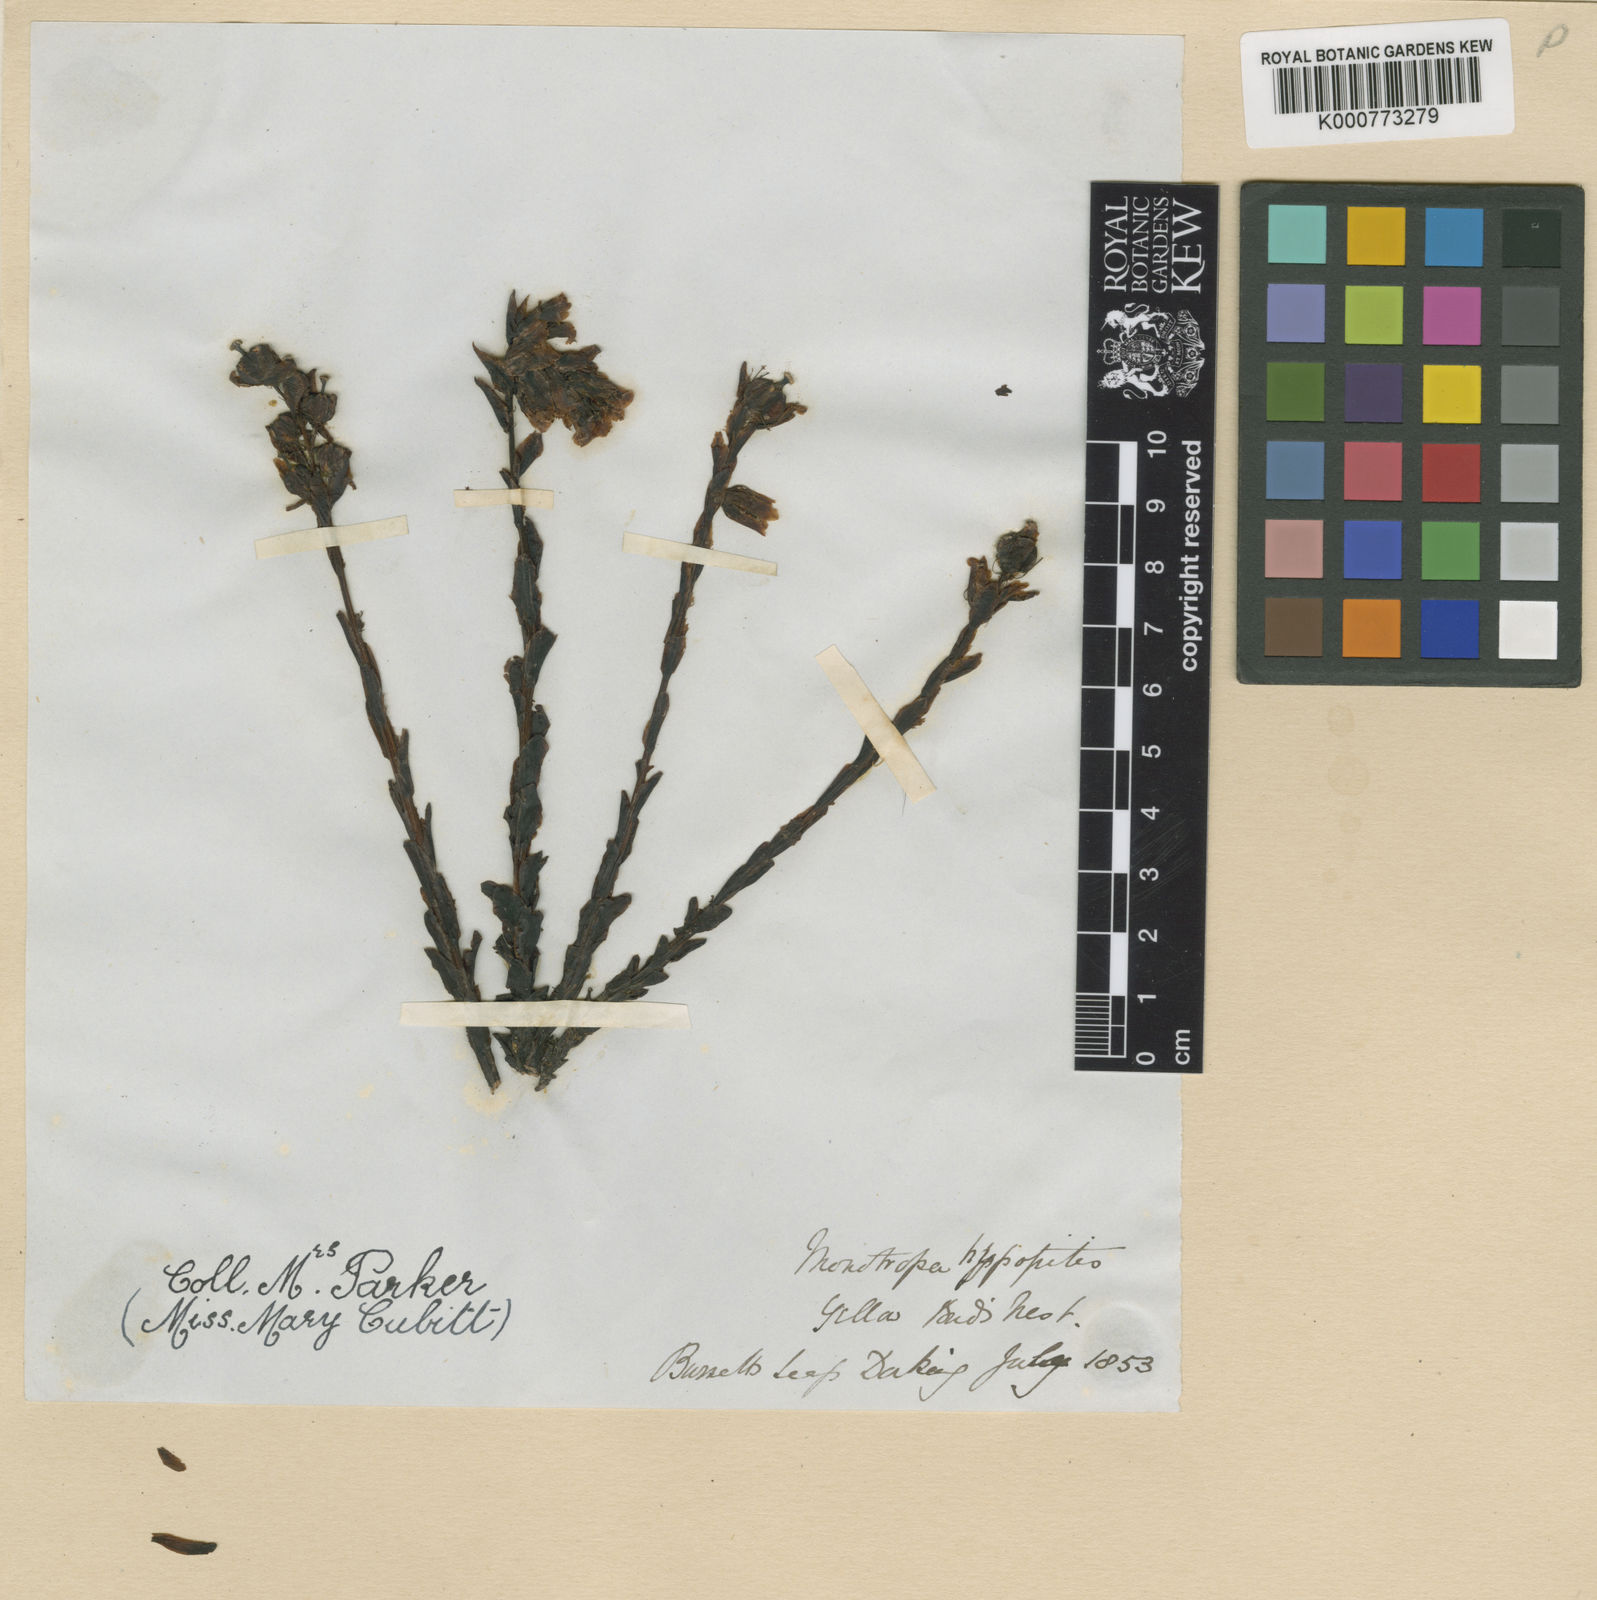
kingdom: Plantae
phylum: Tracheophyta
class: Magnoliopsida
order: Ericales
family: Ericaceae
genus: Monotropa
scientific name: Monotropa
